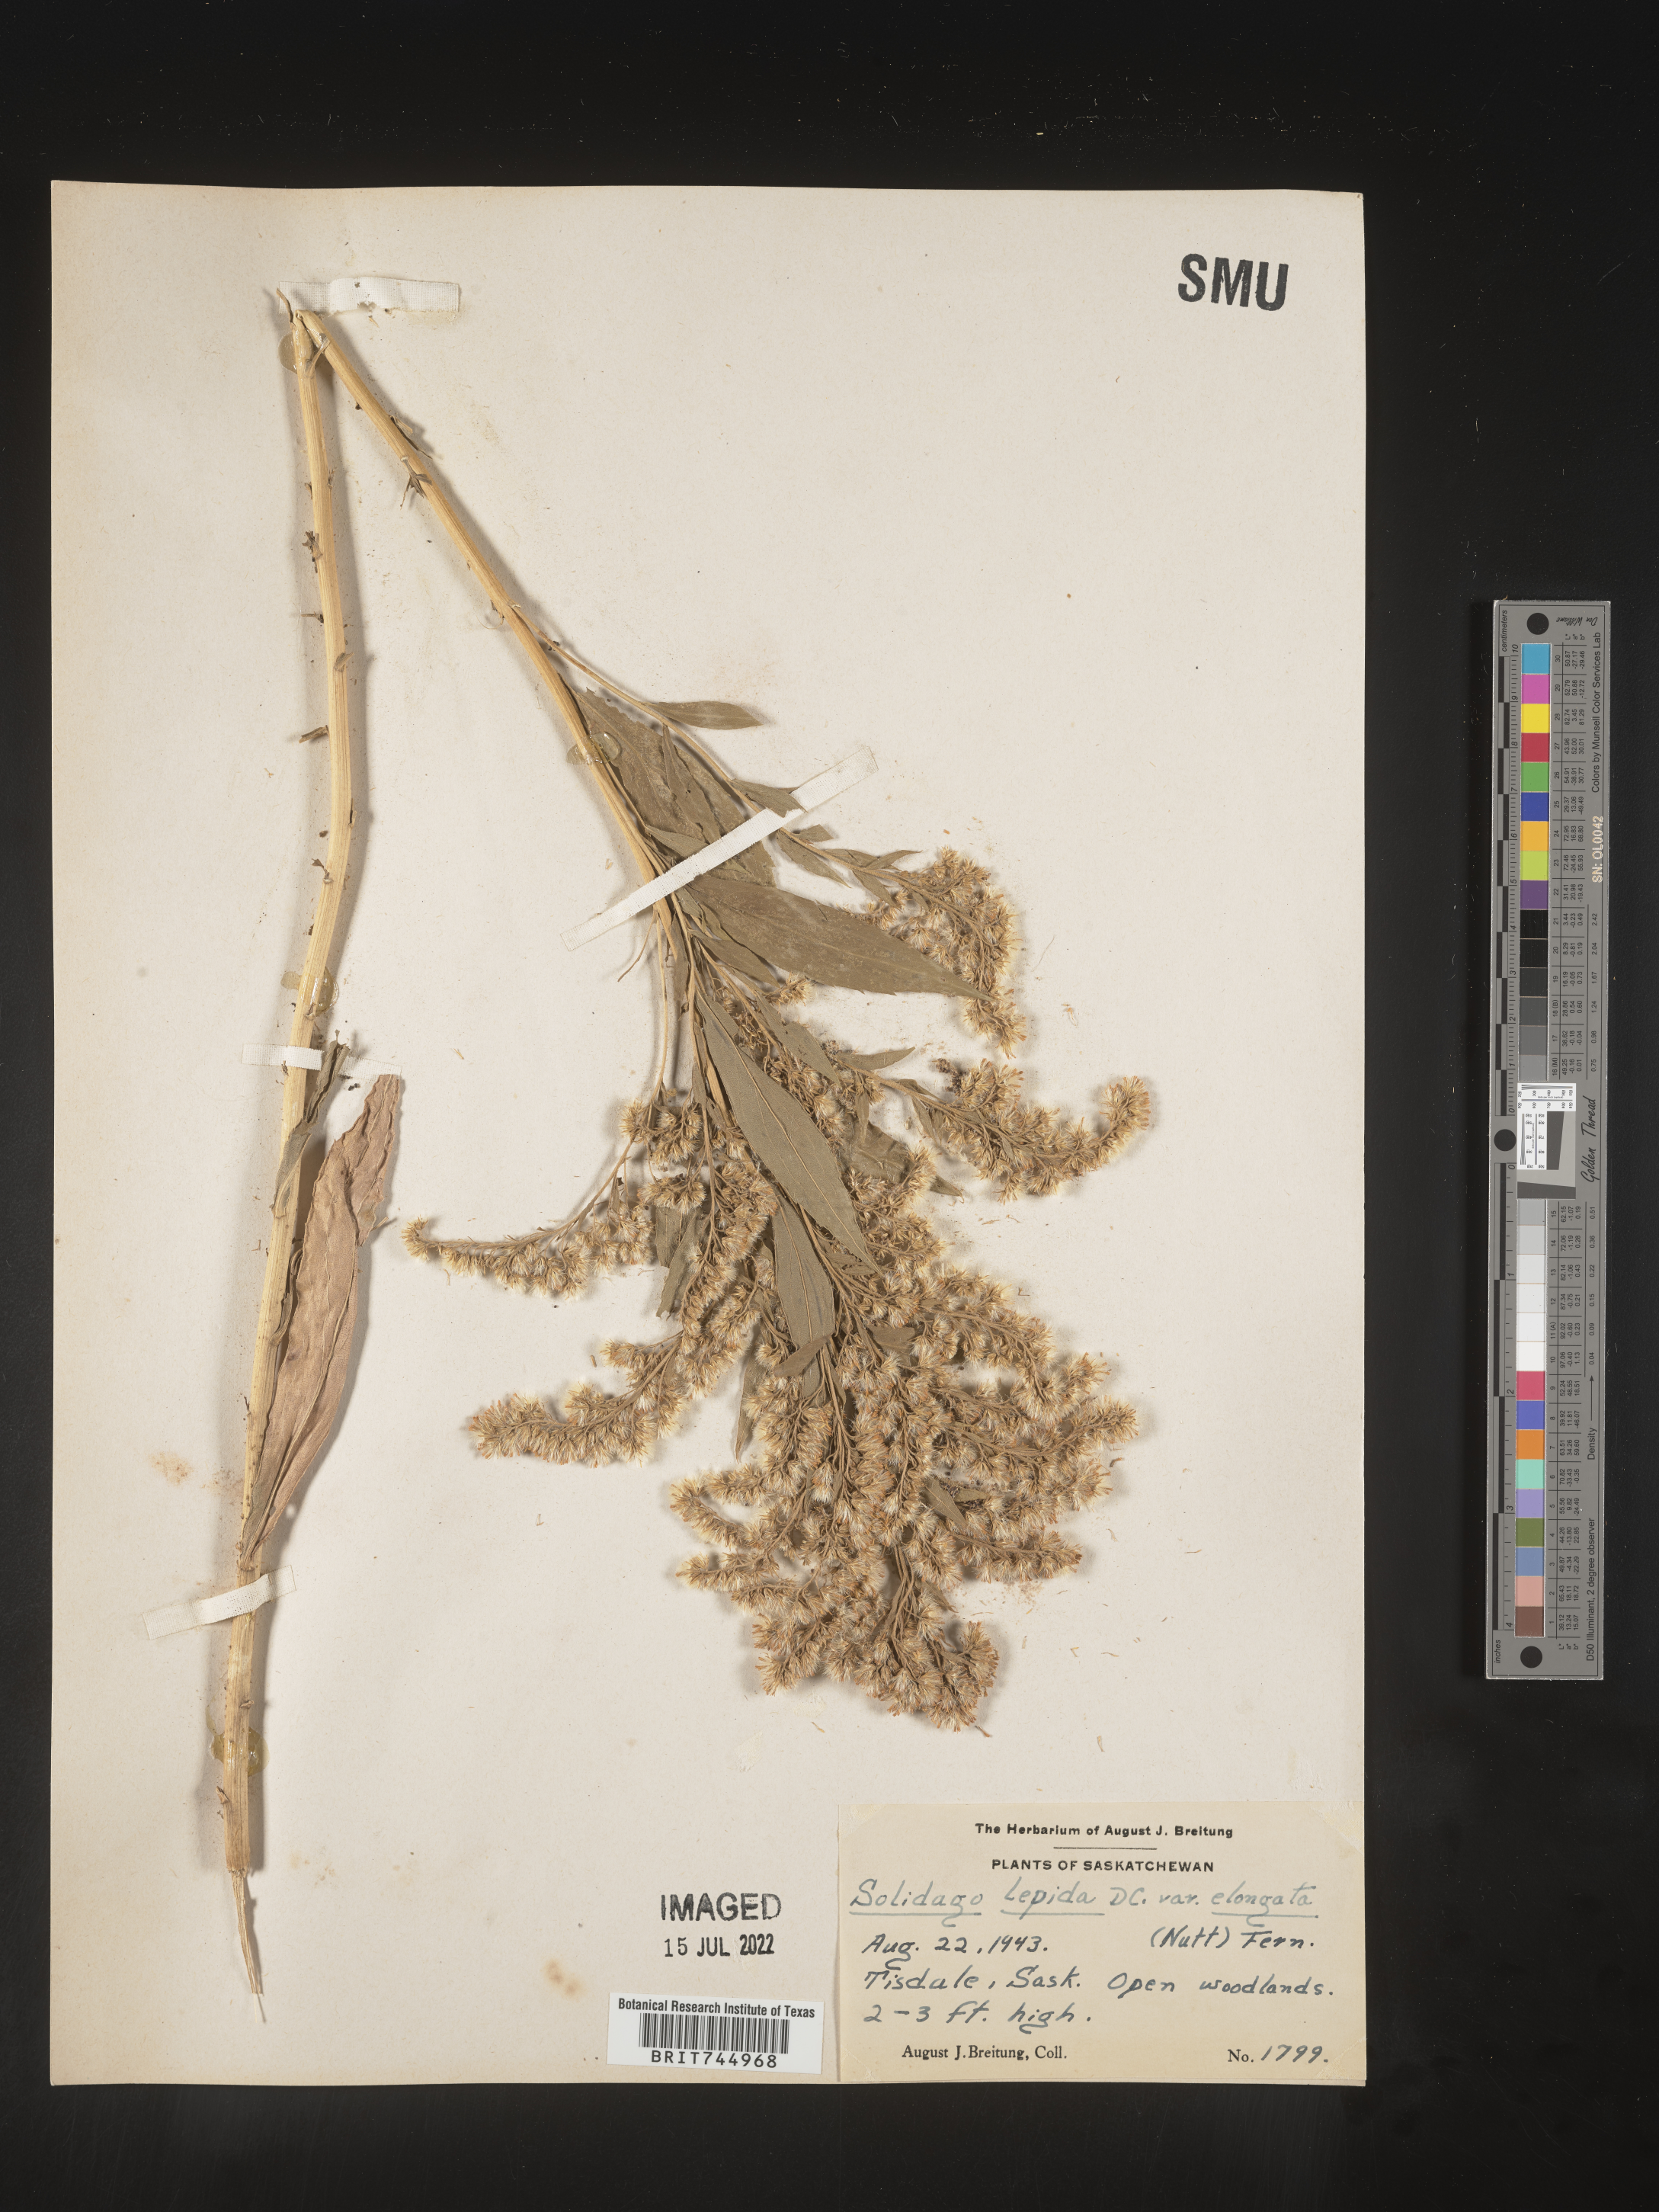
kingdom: Plantae
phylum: Tracheophyta
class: Magnoliopsida
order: Asterales
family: Asteraceae
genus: Solidago
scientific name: Solidago canadensis
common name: Canada goldenrod
